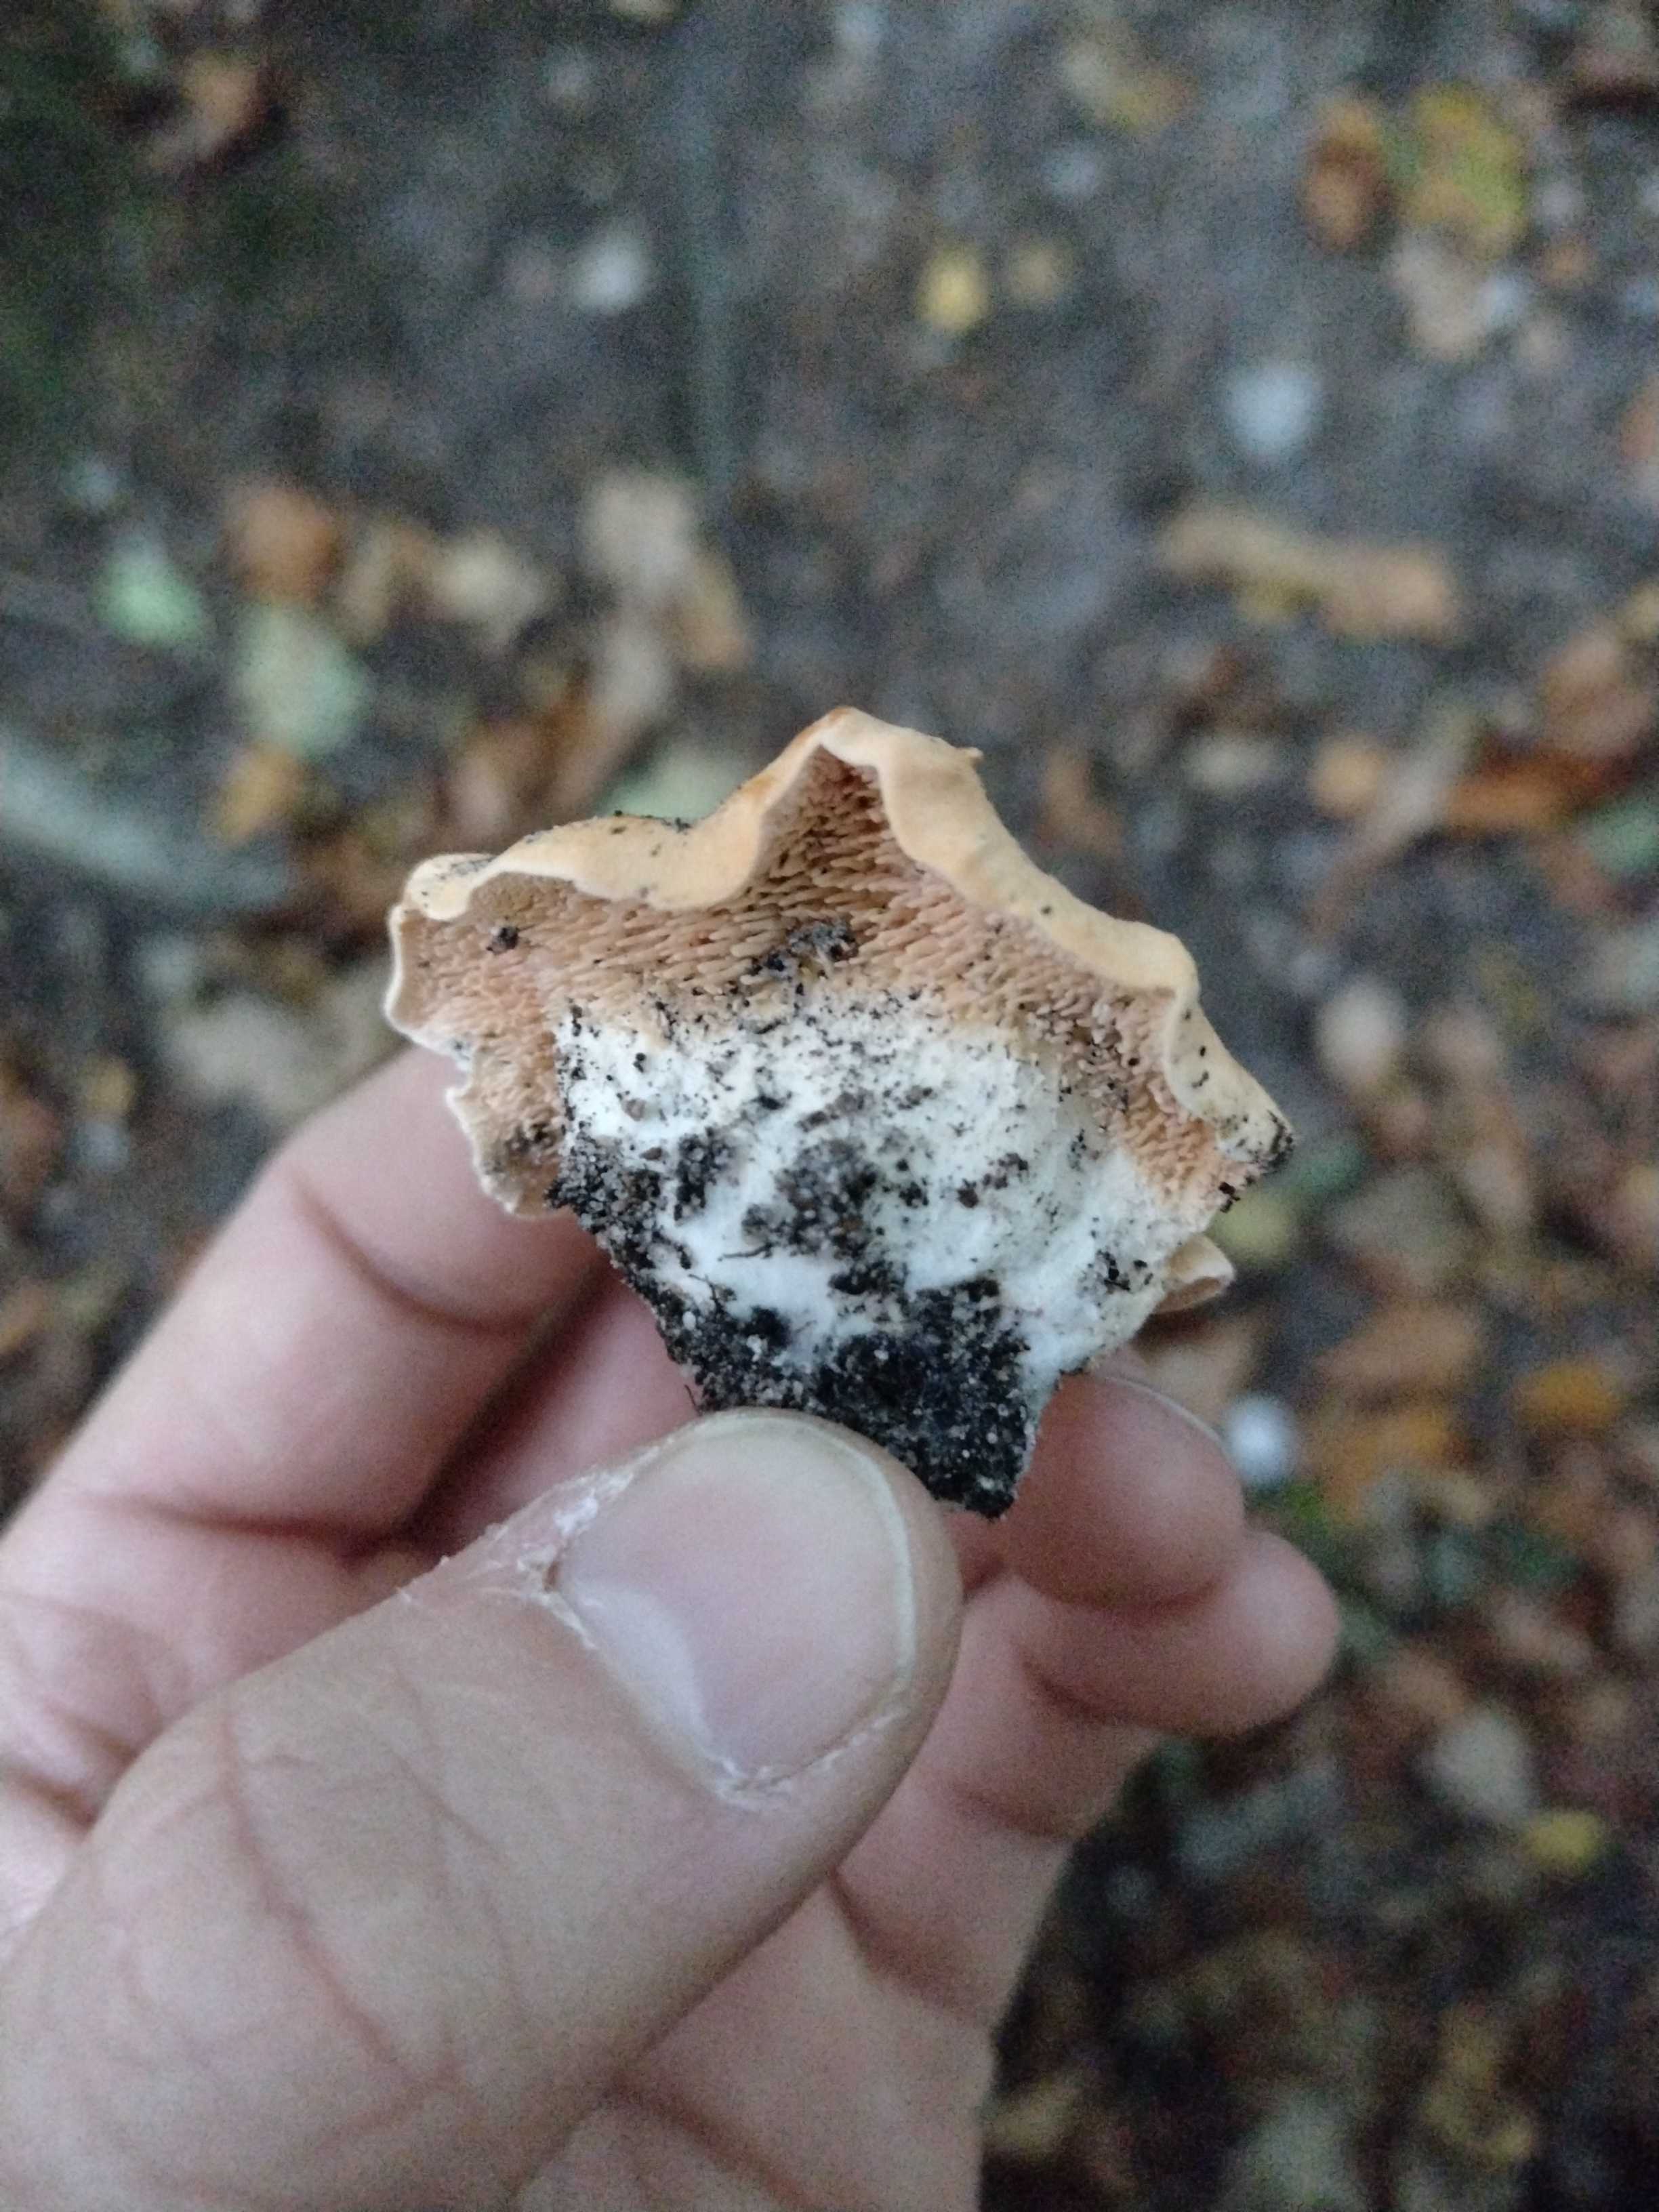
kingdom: Fungi
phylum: Basidiomycota
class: Agaricomycetes
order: Cantharellales
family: Hydnaceae
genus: Hydnum
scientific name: Hydnum rufescens
